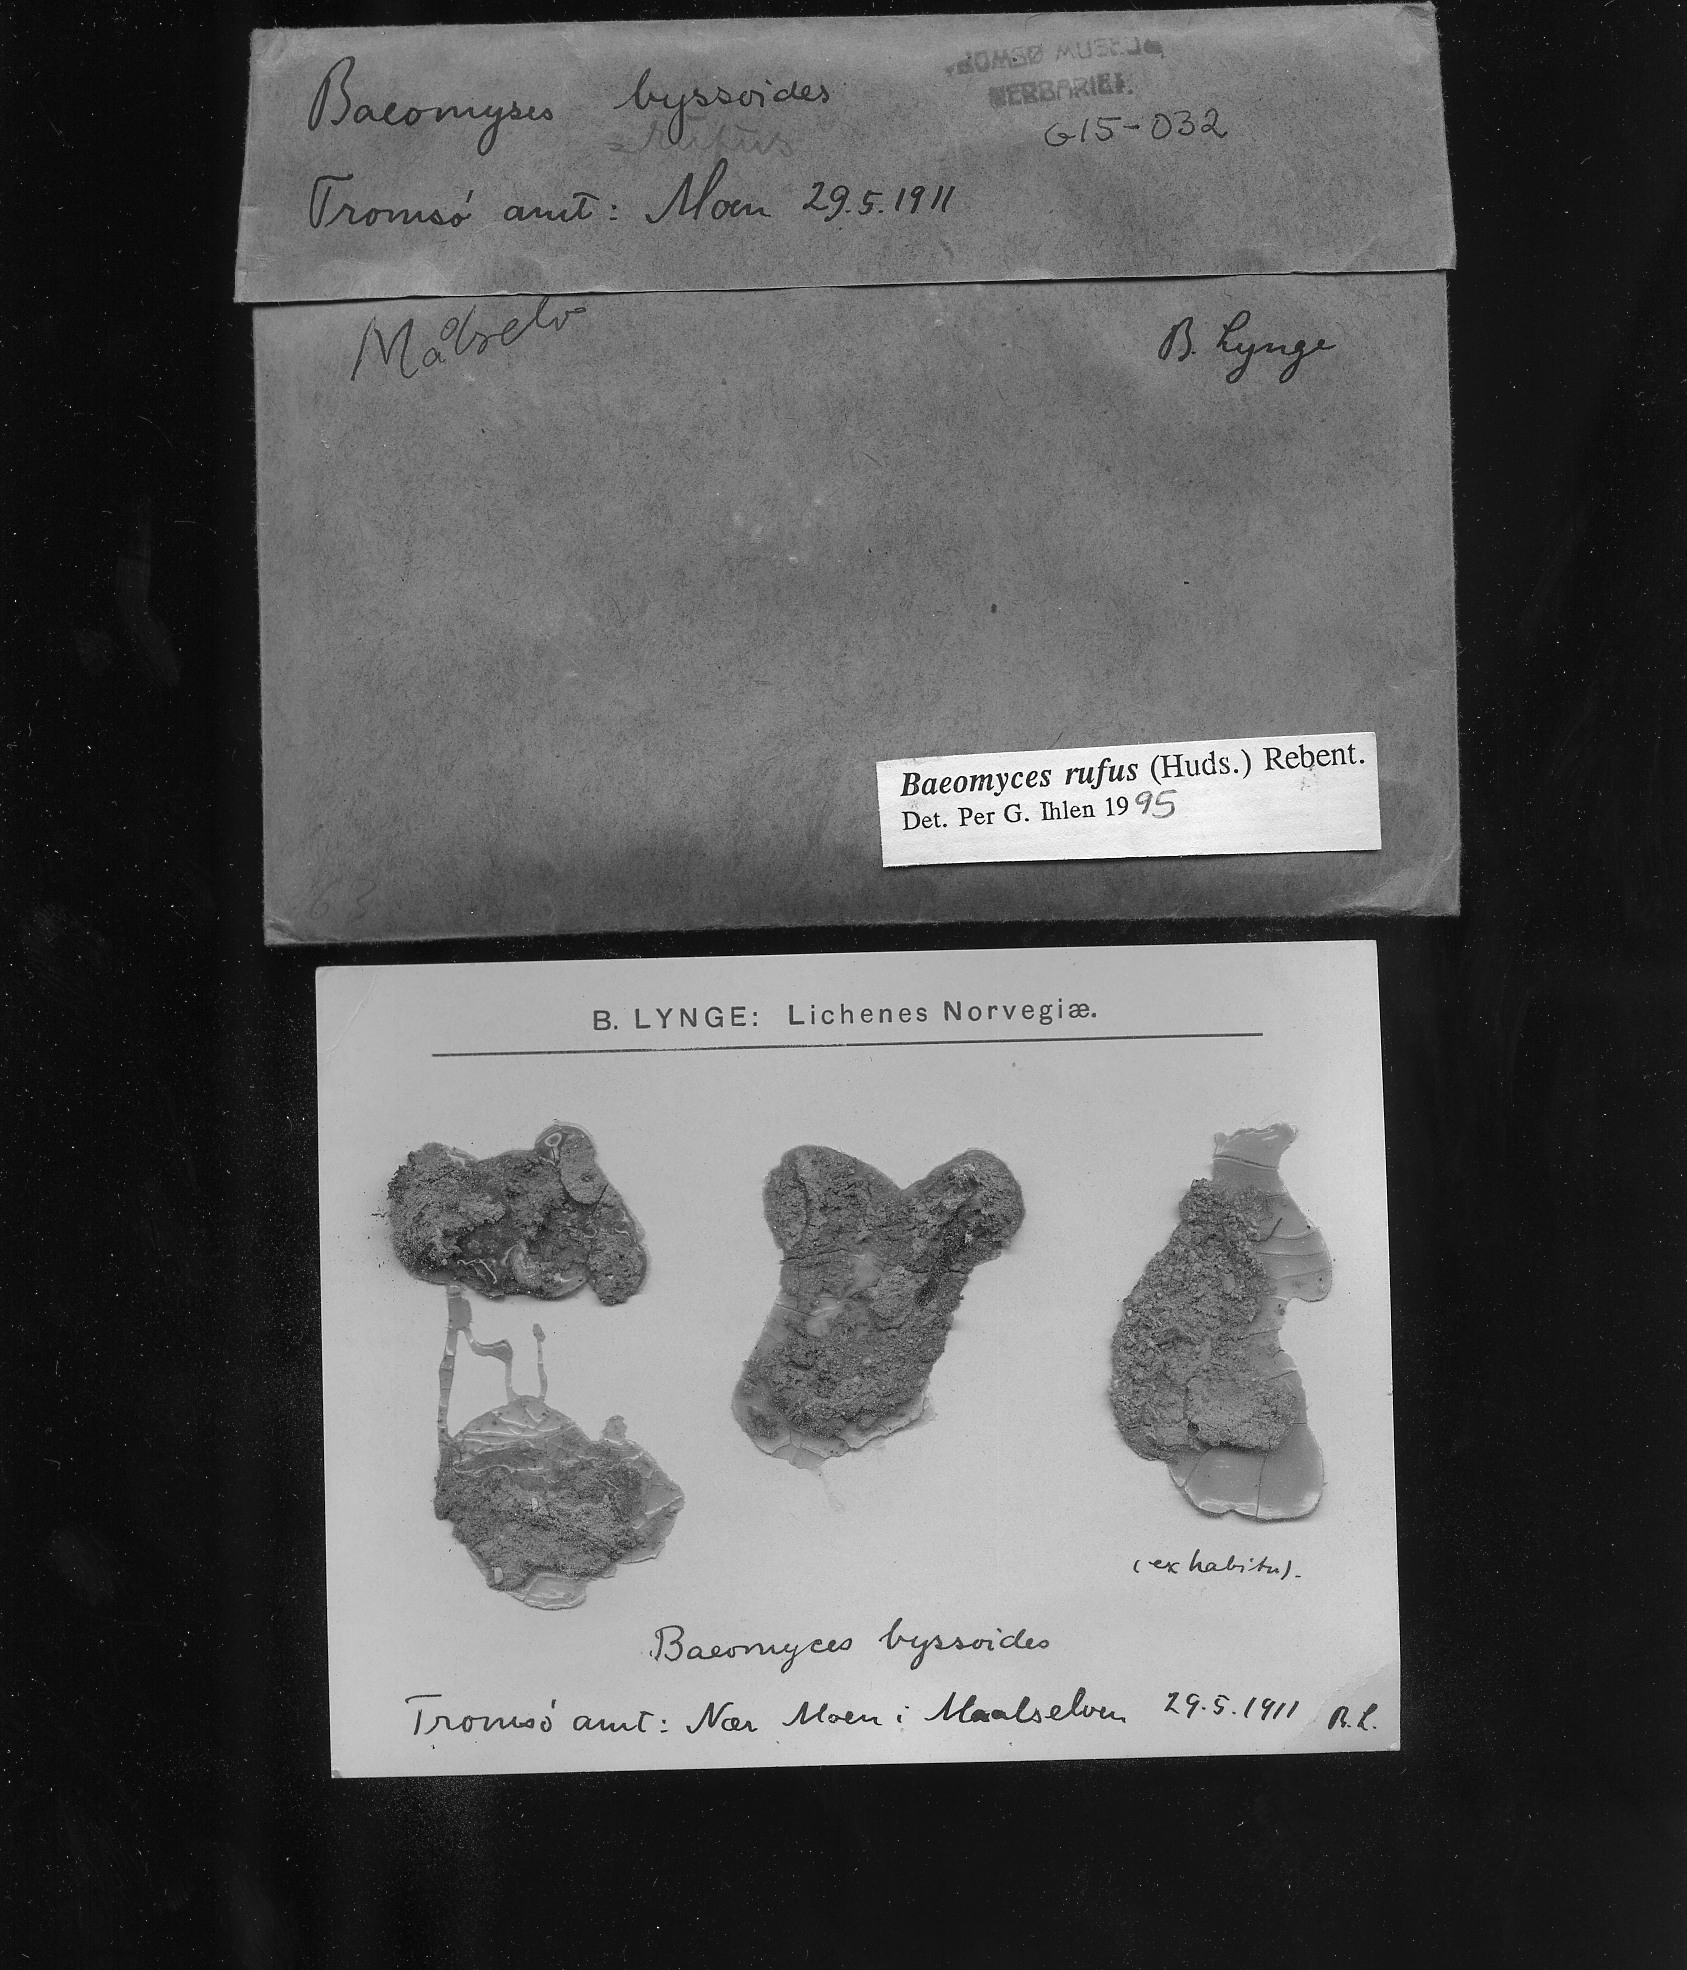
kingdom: Fungi
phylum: Ascomycota
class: Lecanoromycetes
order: Baeomycetales
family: Baeomycetaceae
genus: Baeomyces
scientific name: Baeomyces rufus
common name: Brown beret lichen
